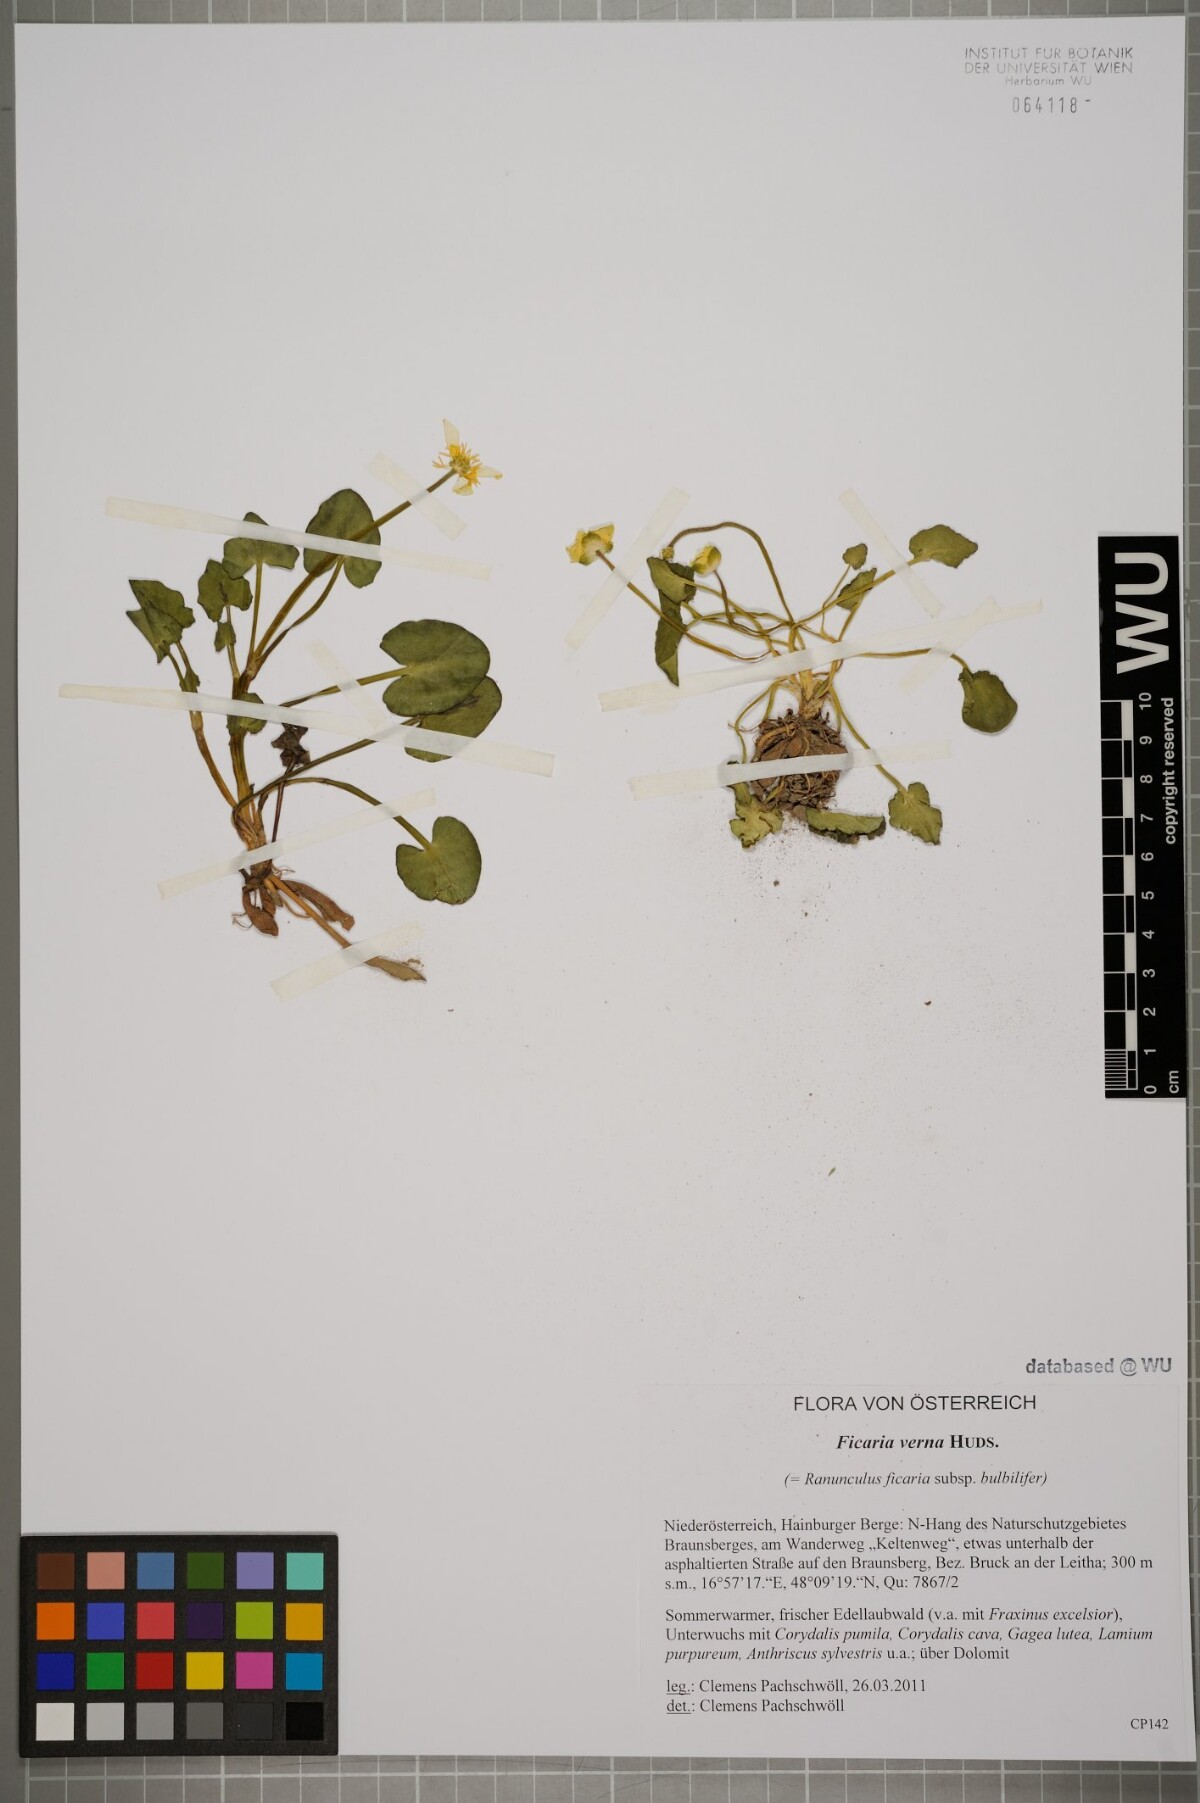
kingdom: Plantae
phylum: Tracheophyta
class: Magnoliopsida
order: Ranunculales
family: Ranunculaceae
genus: Ficaria
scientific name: Ficaria verna
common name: Lesser celandine
